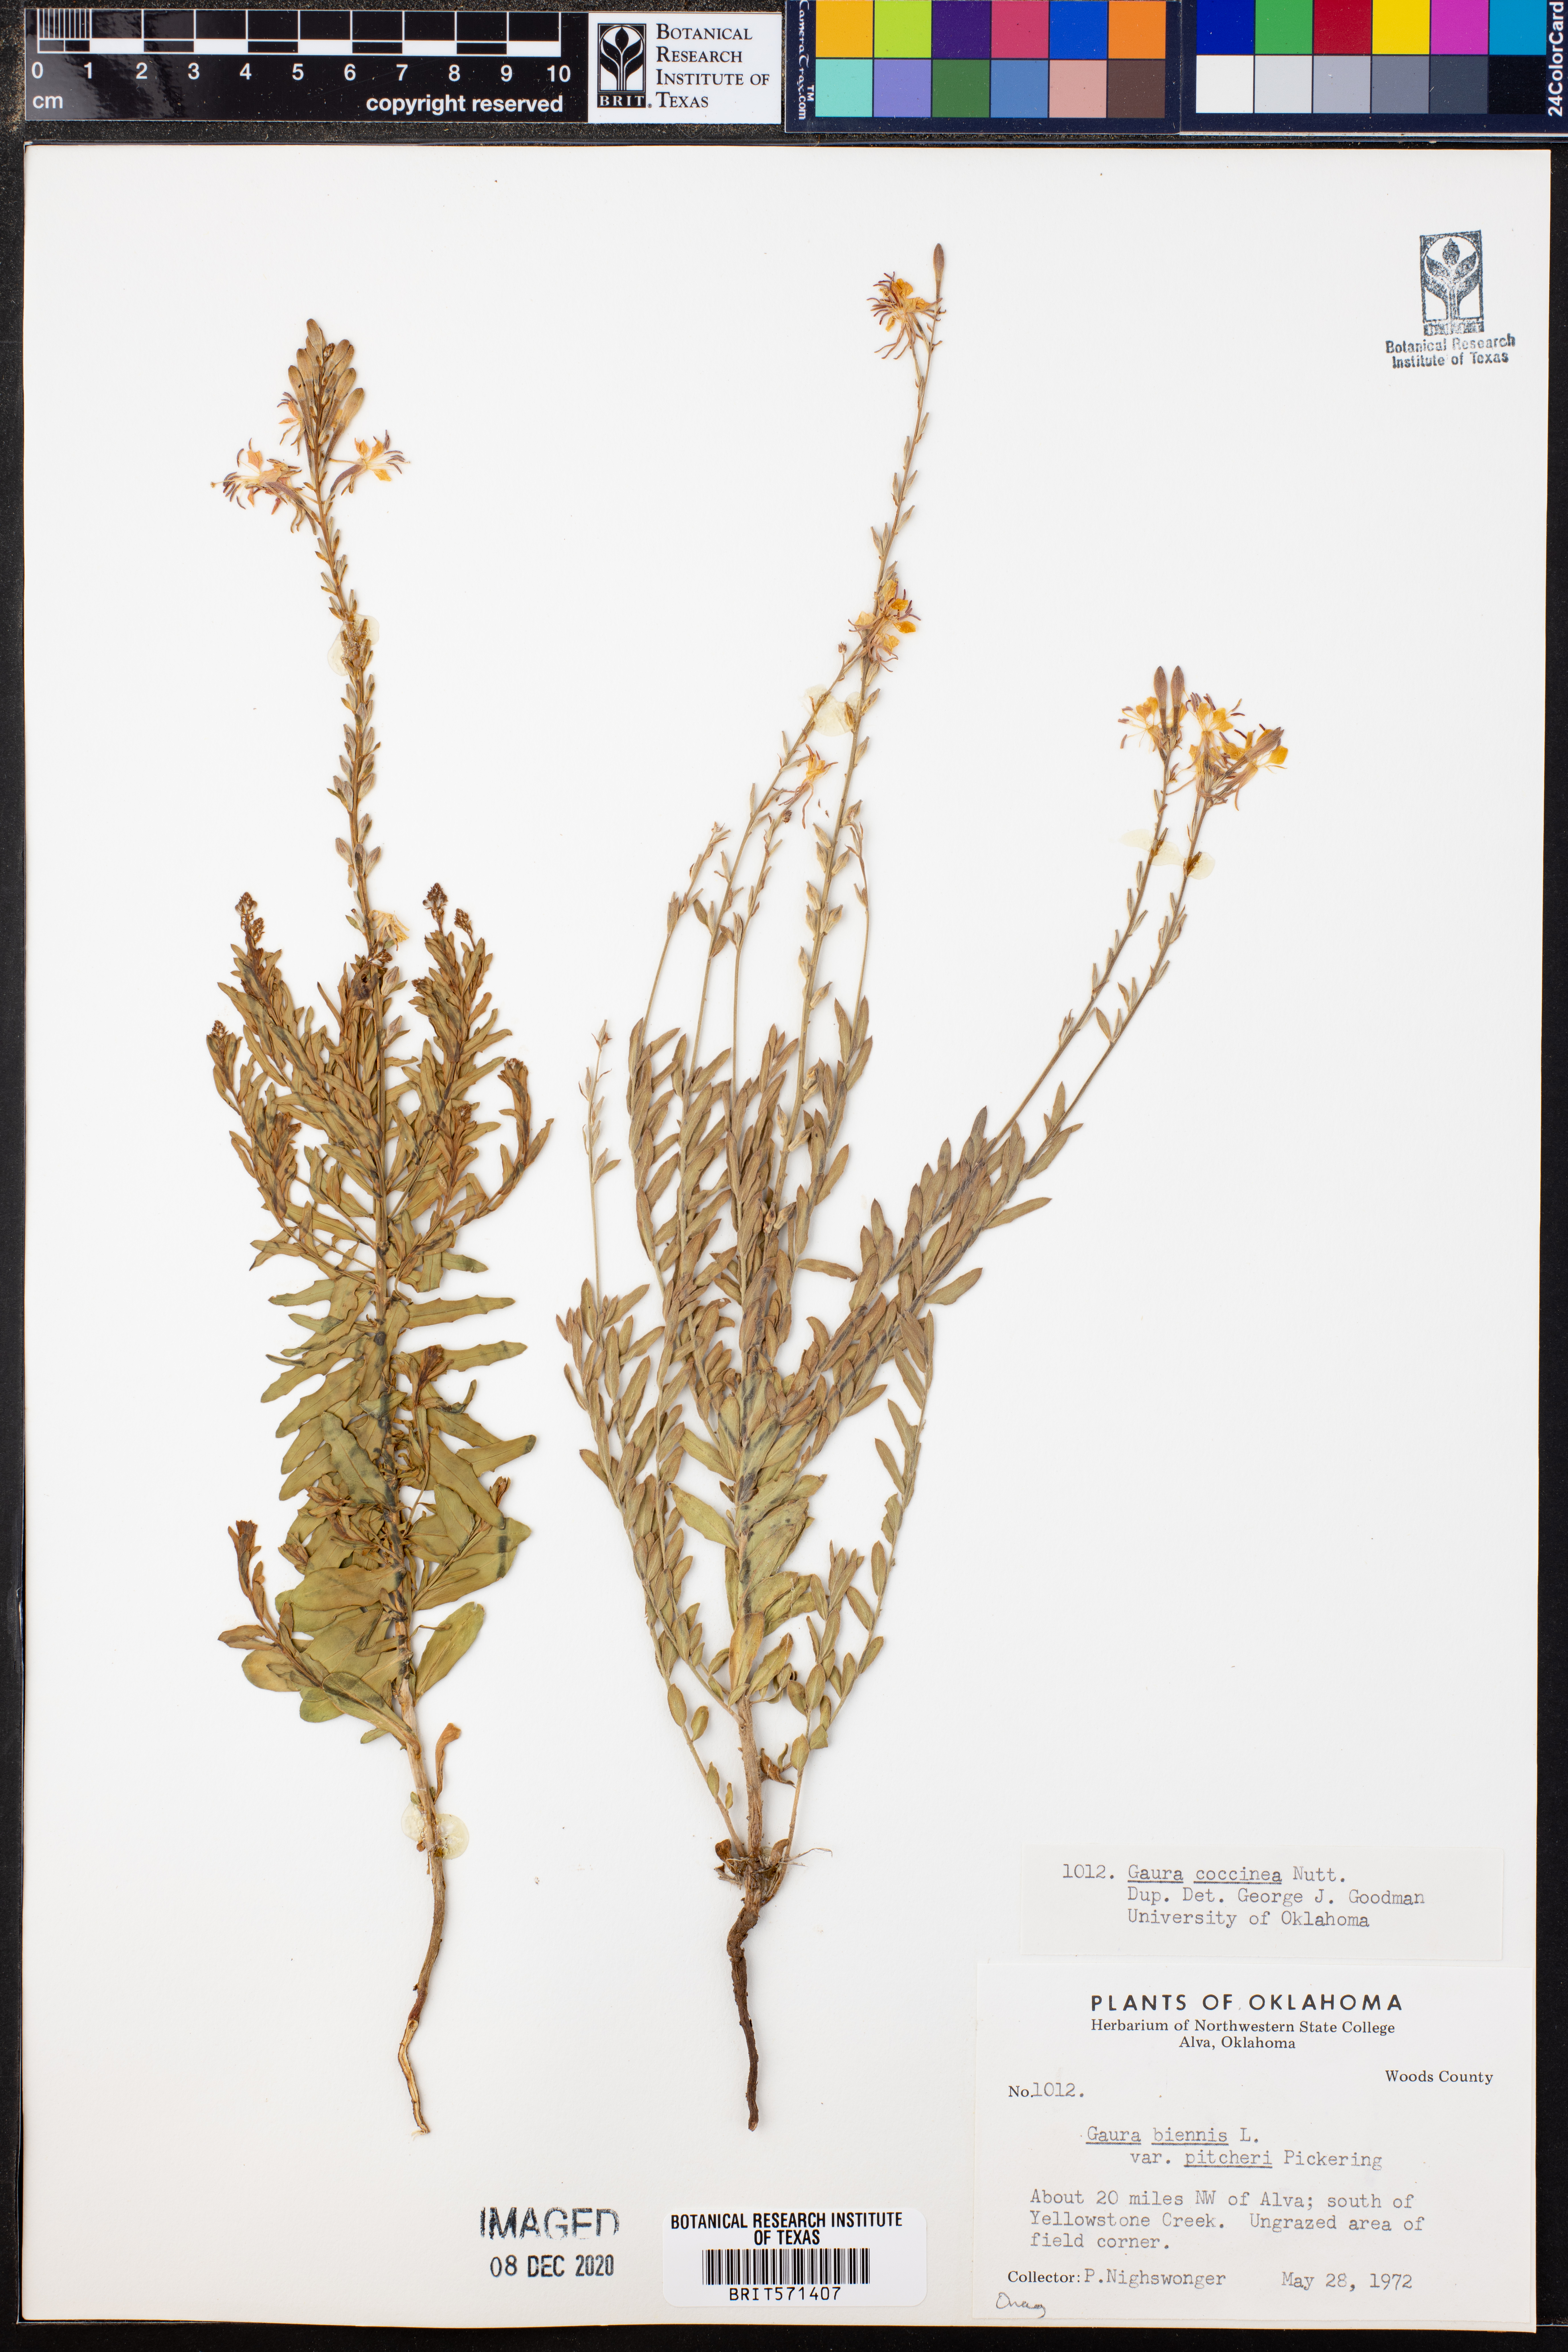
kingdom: Plantae
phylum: Tracheophyta
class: Magnoliopsida
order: Myrtales
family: Onagraceae
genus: Oenothera
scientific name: Oenothera suffrutescens
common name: Scarlet beeblossom
